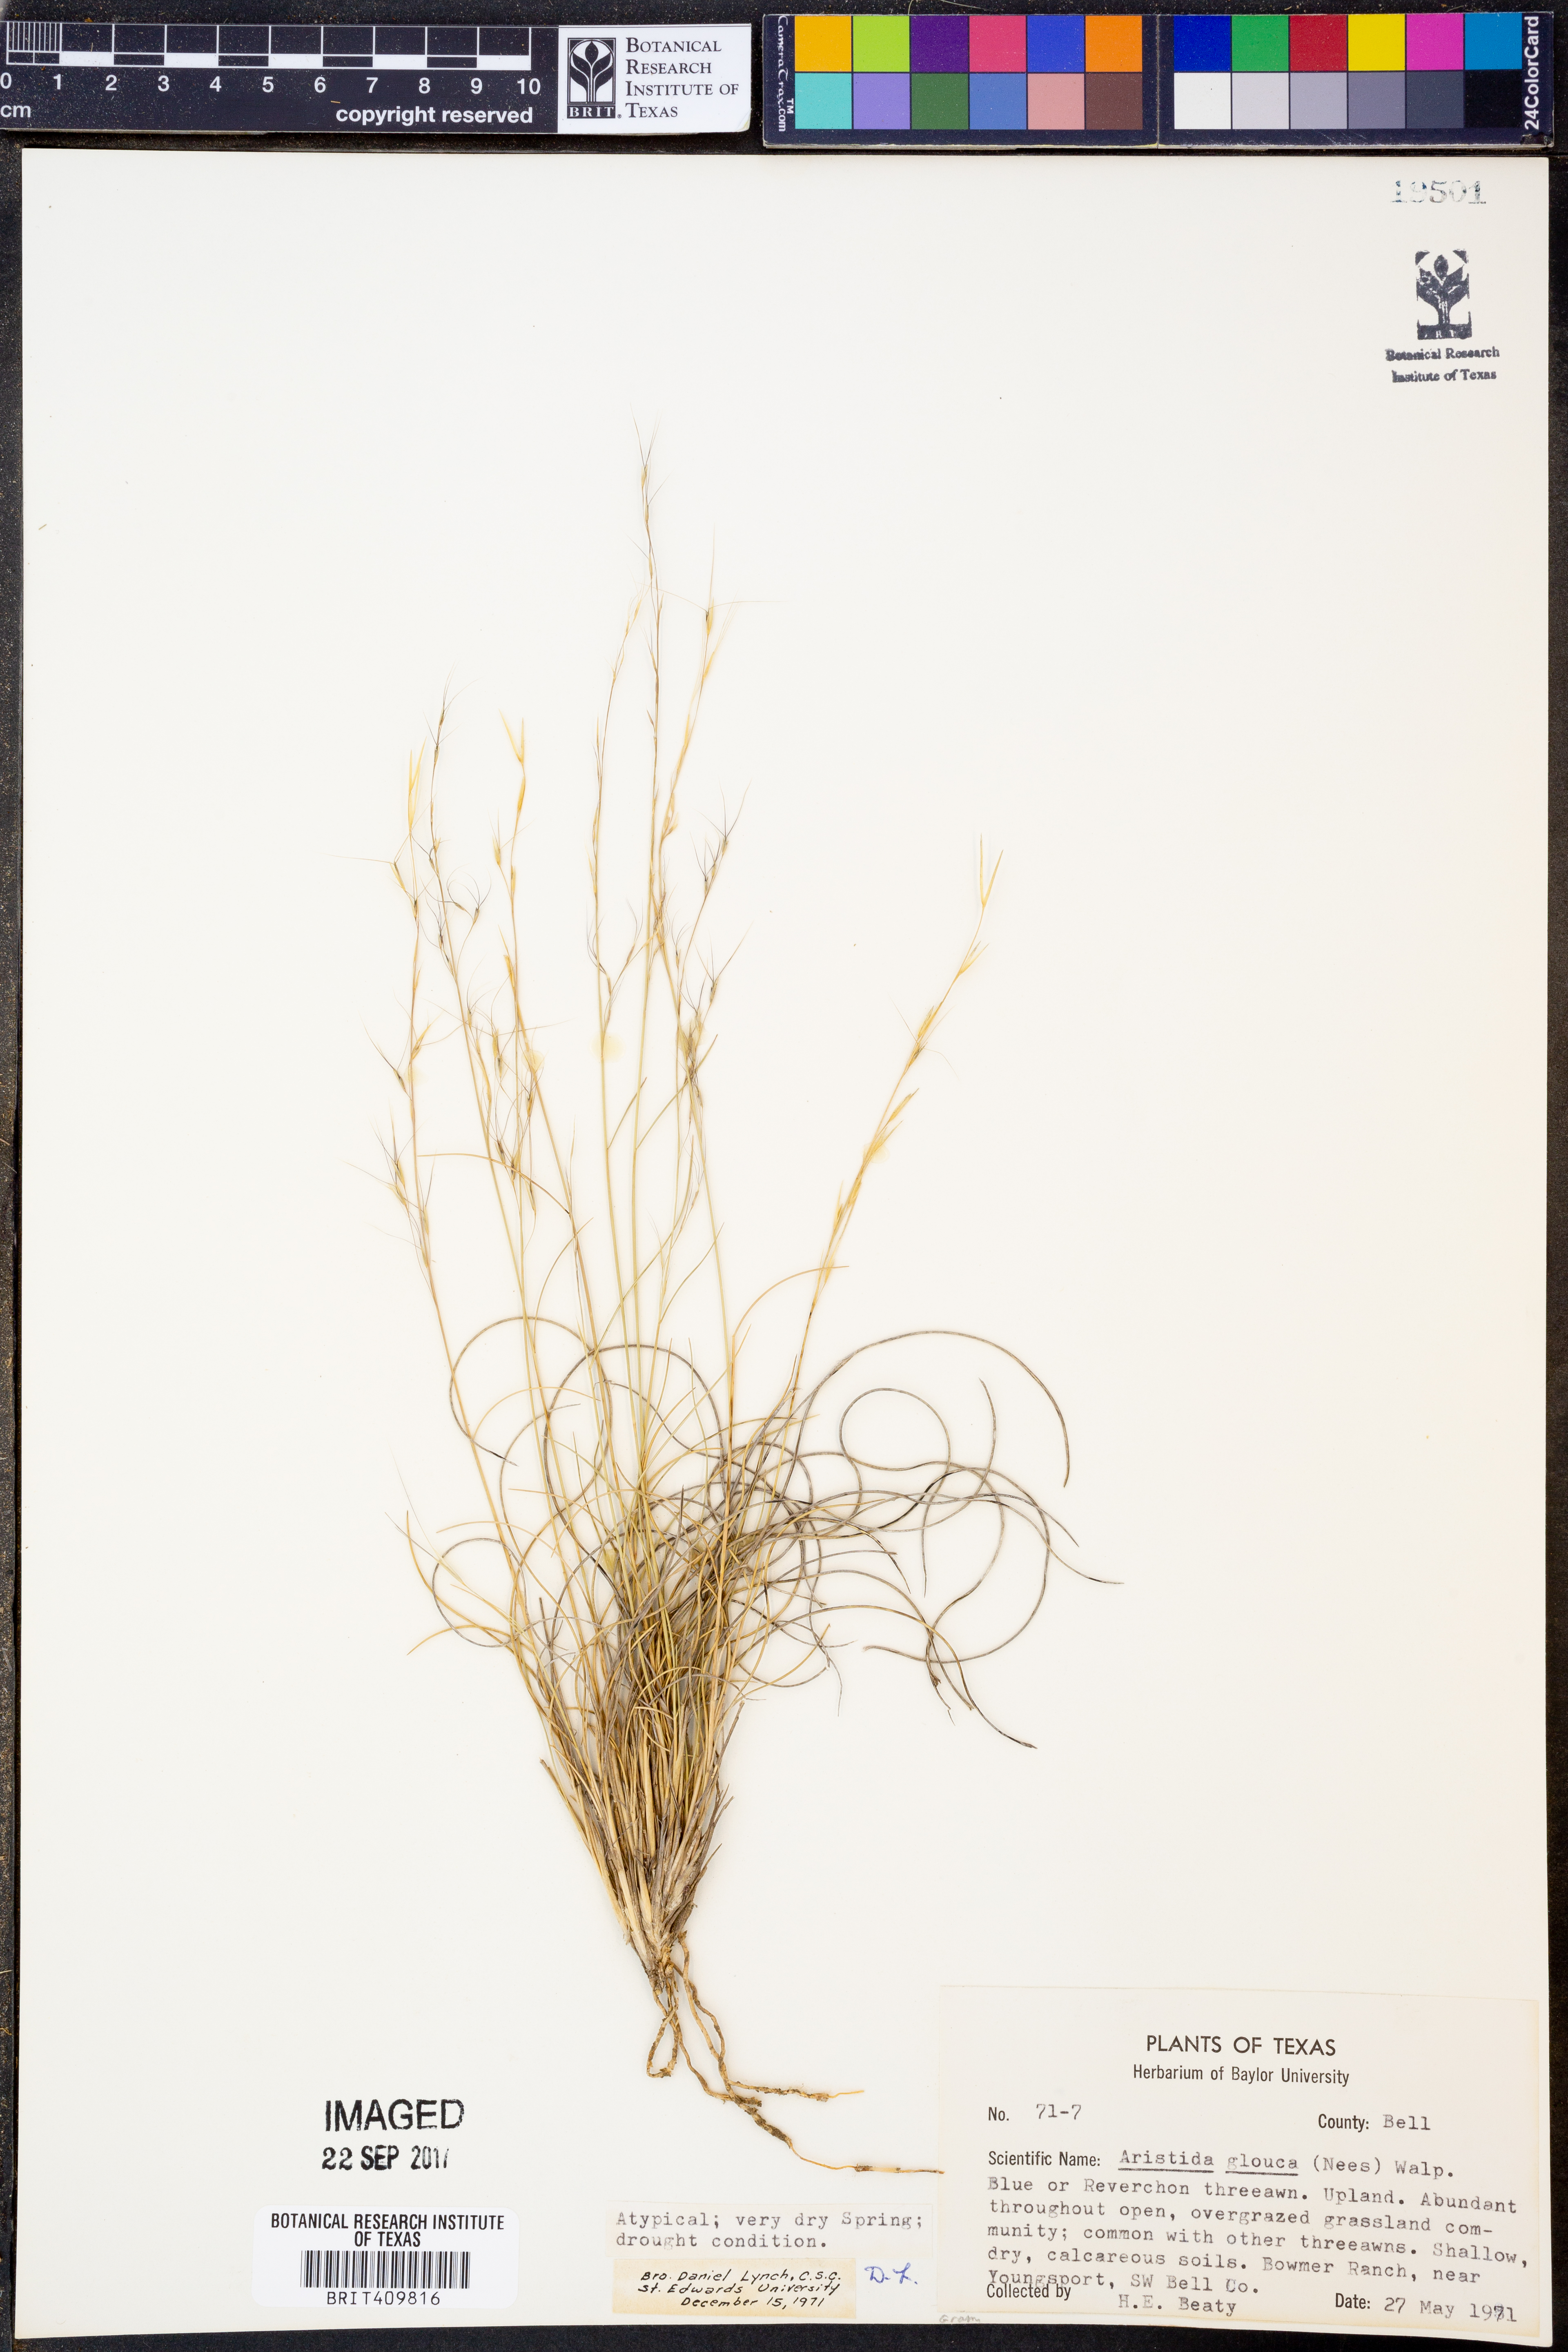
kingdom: Plantae
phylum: Tracheophyta
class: Liliopsida
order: Poales
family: Poaceae
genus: Aristida
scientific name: Aristida glauca
